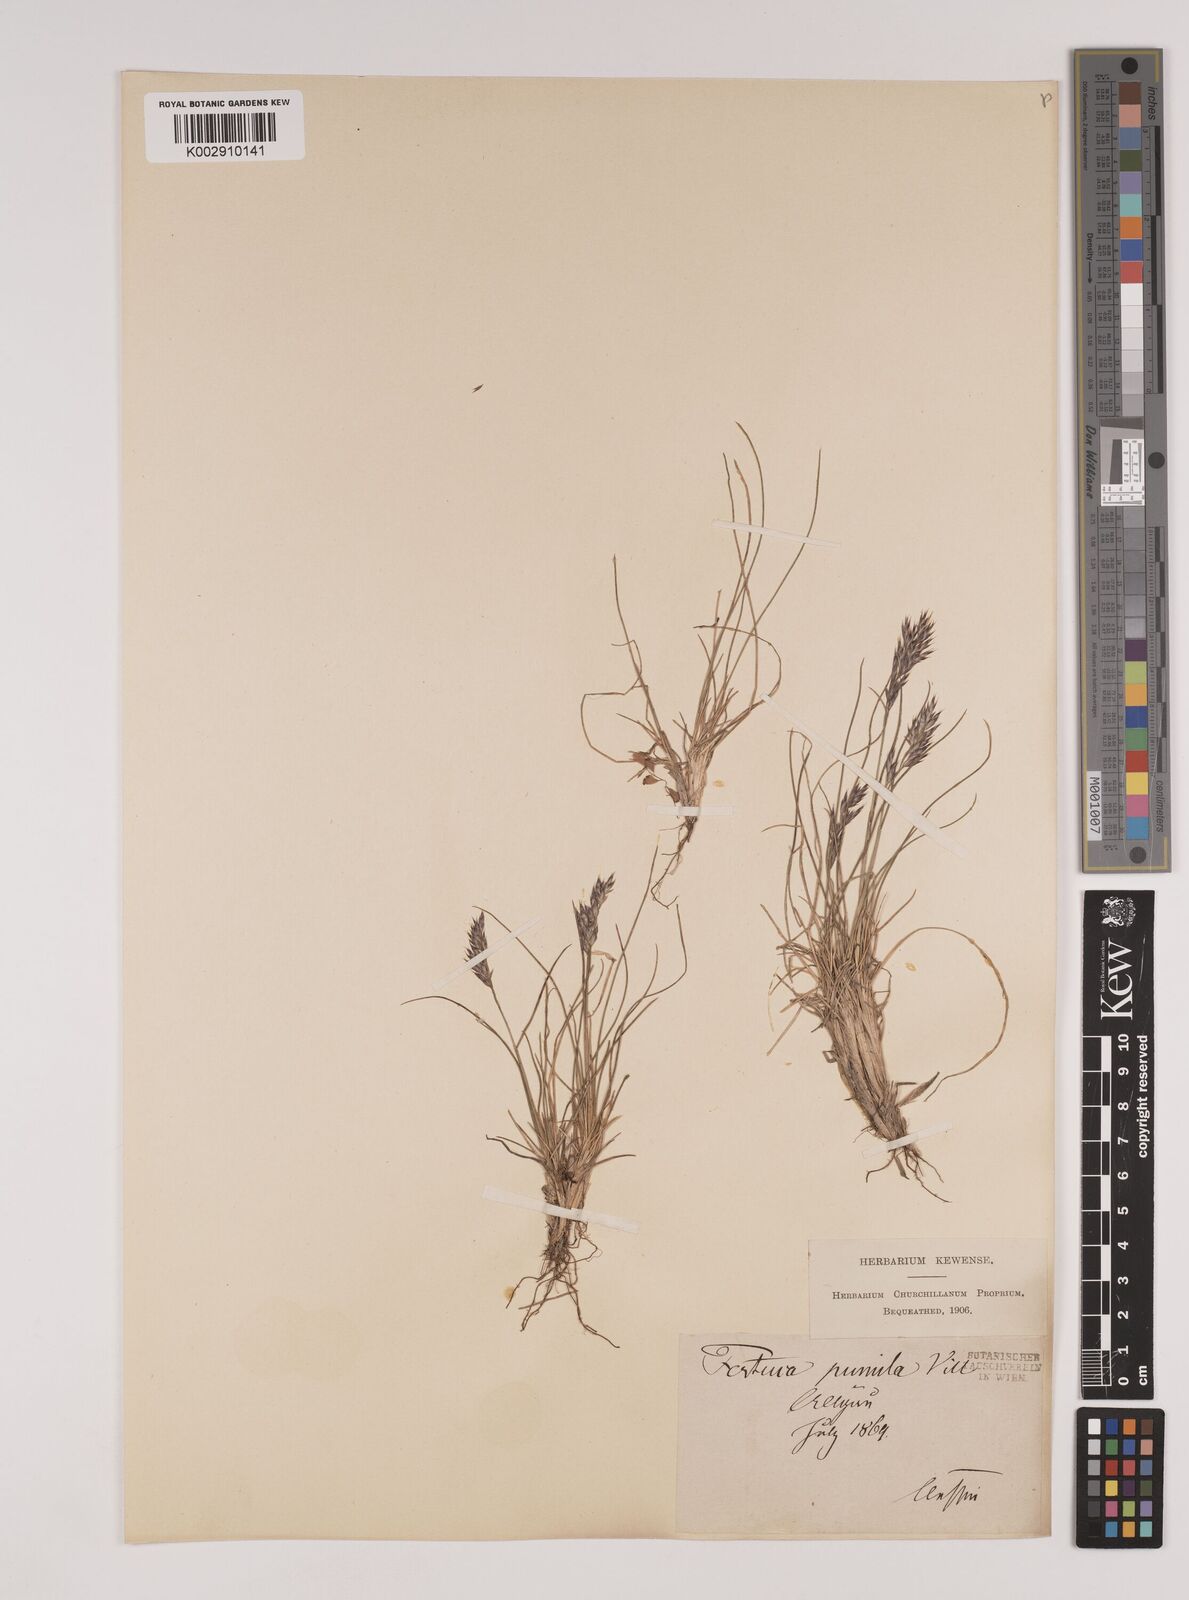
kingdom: Plantae
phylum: Tracheophyta
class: Liliopsida
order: Poales
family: Poaceae
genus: Festuca
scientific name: Festuca
